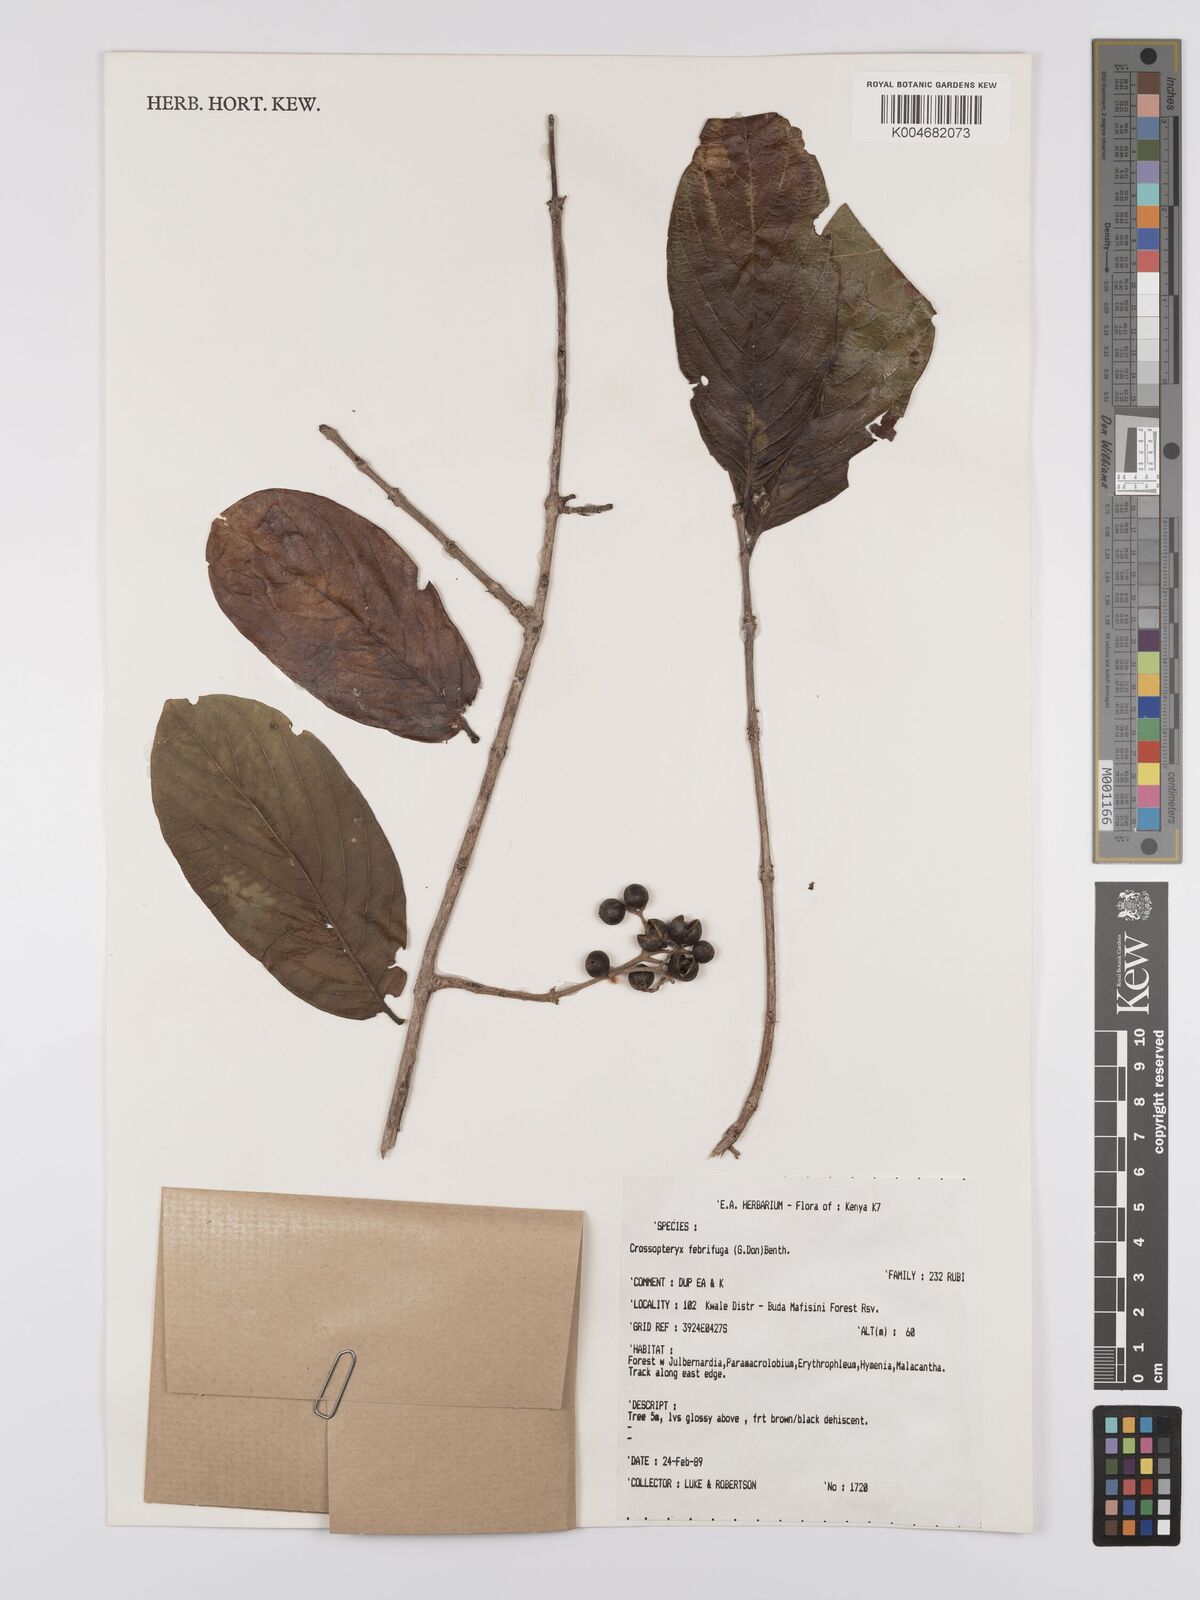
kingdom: Plantae
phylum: Tracheophyta
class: Magnoliopsida
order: Gentianales
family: Rubiaceae
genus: Crossopteryx
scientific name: Crossopteryx febrifuga
